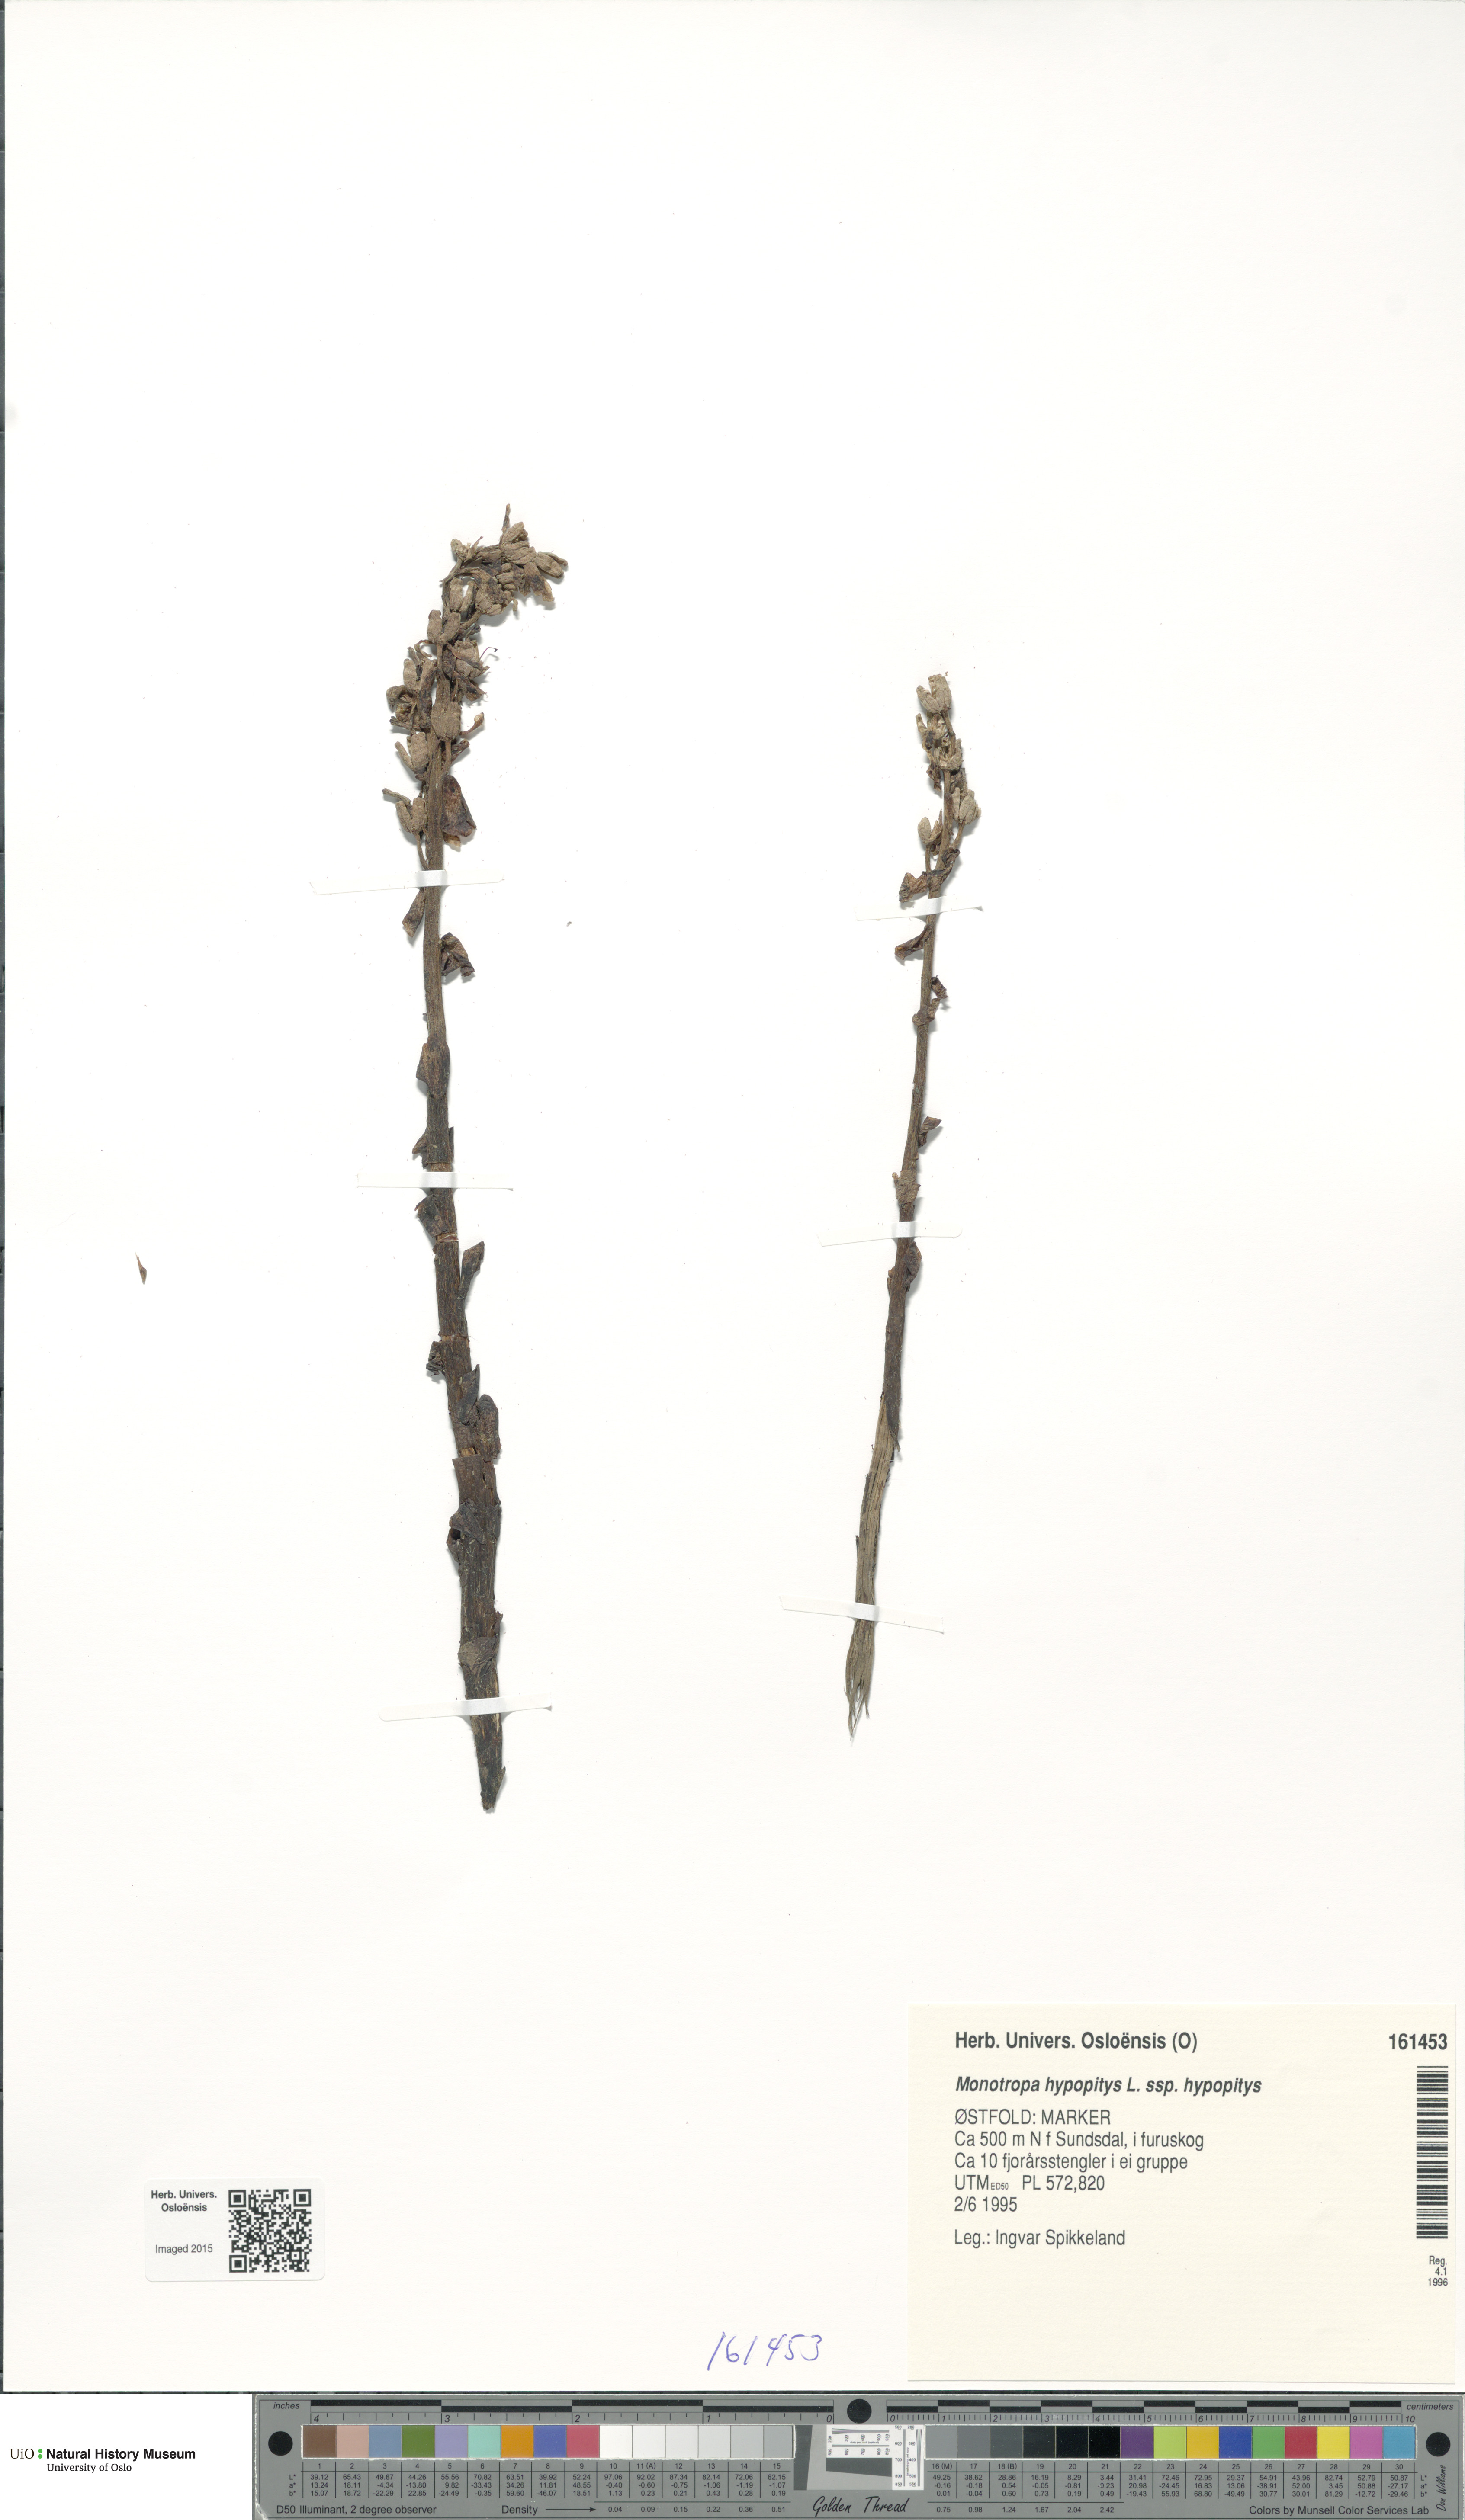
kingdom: Plantae
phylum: Tracheophyta
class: Magnoliopsida
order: Ericales
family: Ericaceae
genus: Hypopitys
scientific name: Hypopitys monotropa
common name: Yellow bird's-nest
